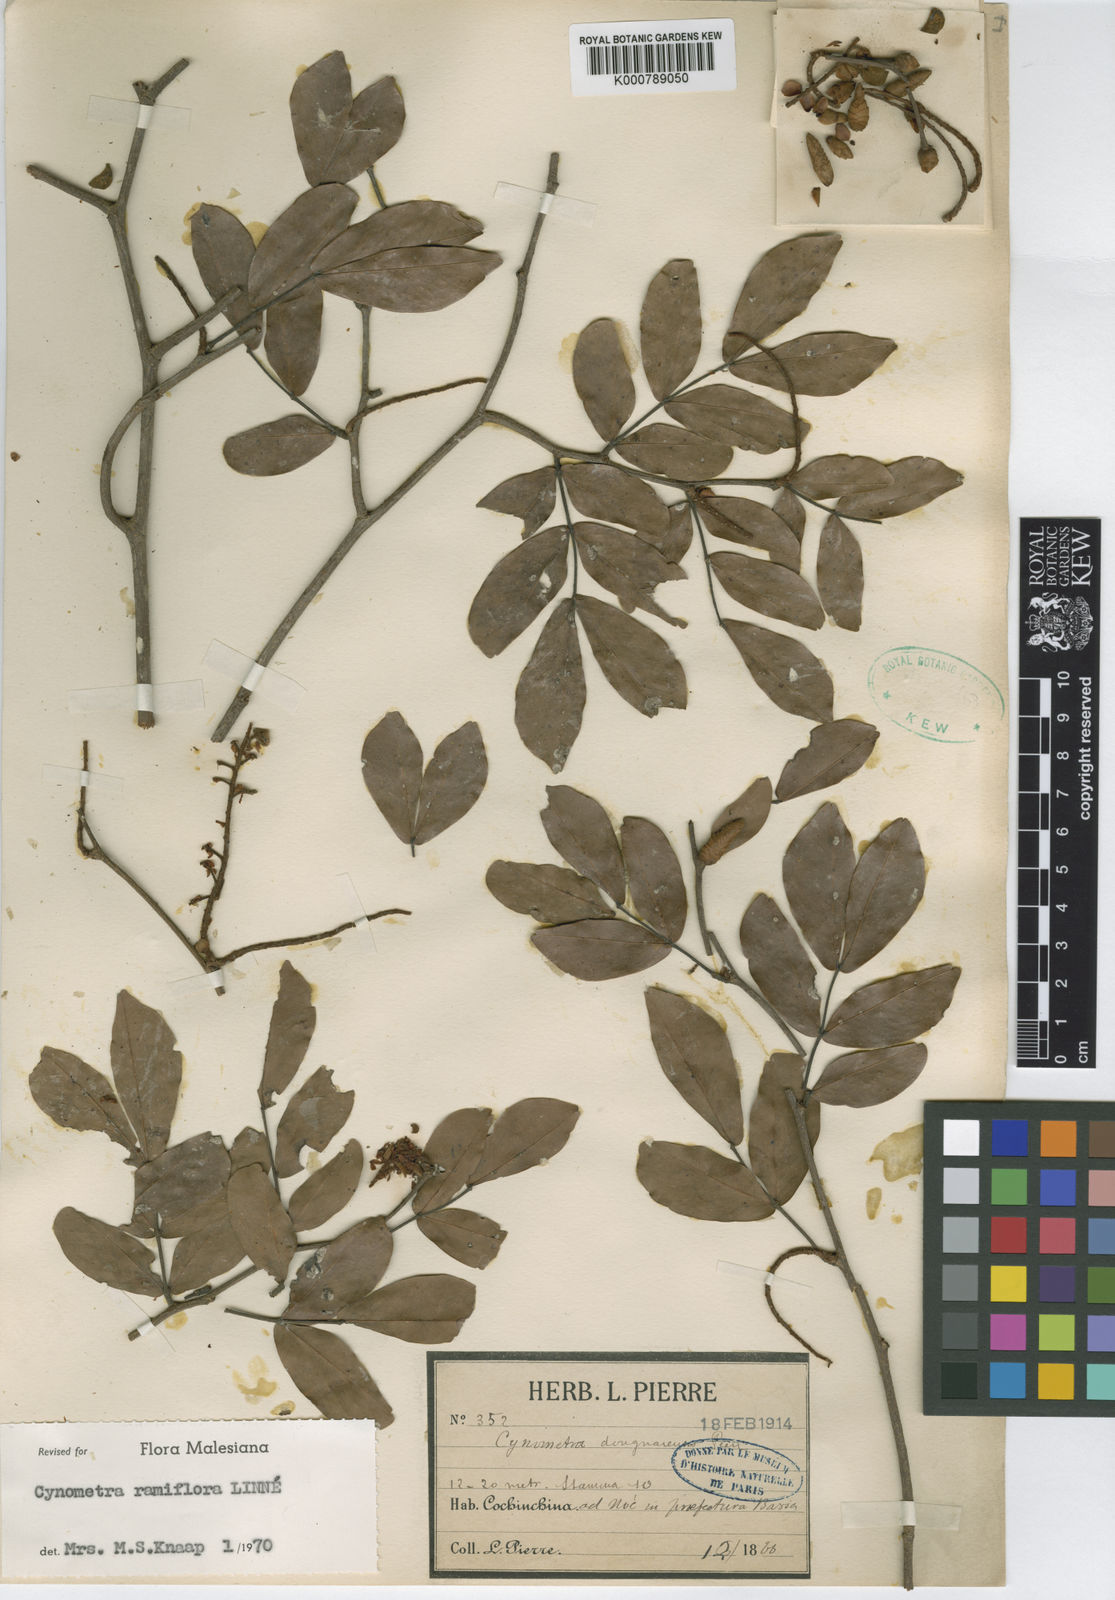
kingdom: Plantae
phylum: Tracheophyta
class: Magnoliopsida
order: Fabales
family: Fabaceae
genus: Cynometra
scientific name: Cynometra ramiflora
